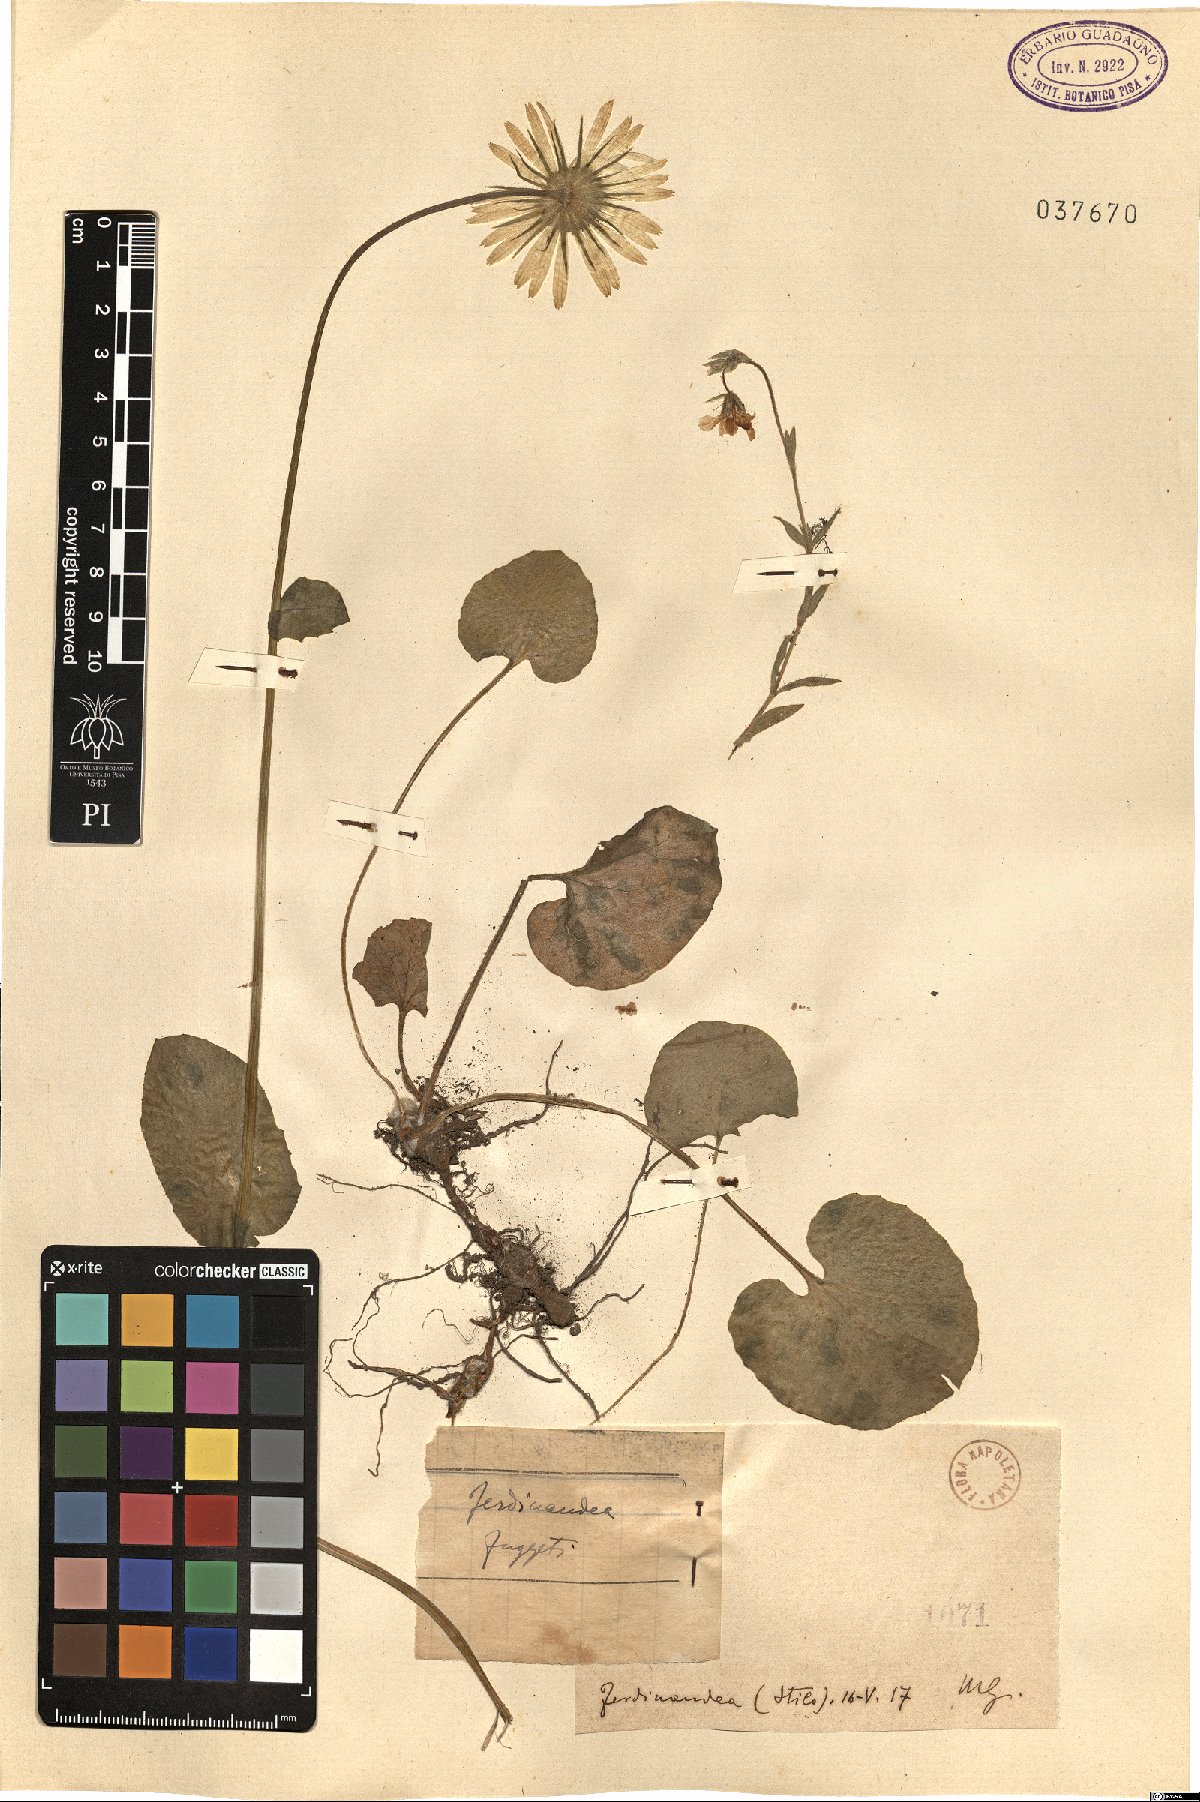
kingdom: Plantae
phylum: Tracheophyta
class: Magnoliopsida
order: Asterales
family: Asteraceae
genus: Doronicum
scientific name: Doronicum
